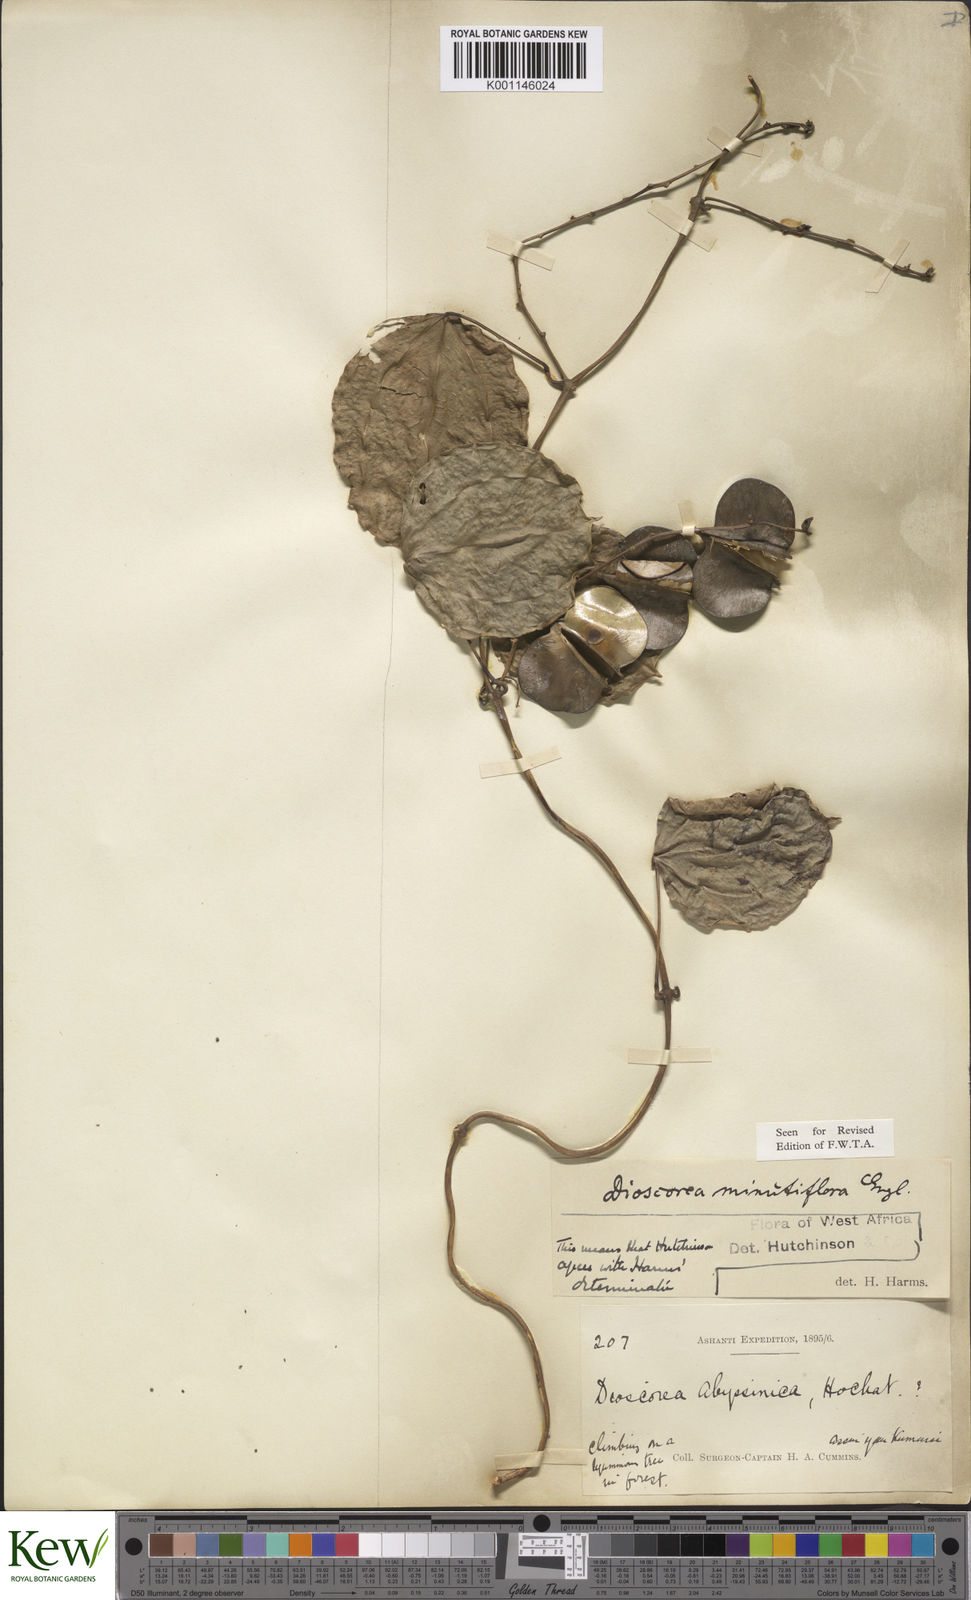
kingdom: Plantae
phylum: Tracheophyta
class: Liliopsida
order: Dioscoreales
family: Dioscoreaceae
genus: Dioscorea
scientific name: Dioscorea minutiflora
